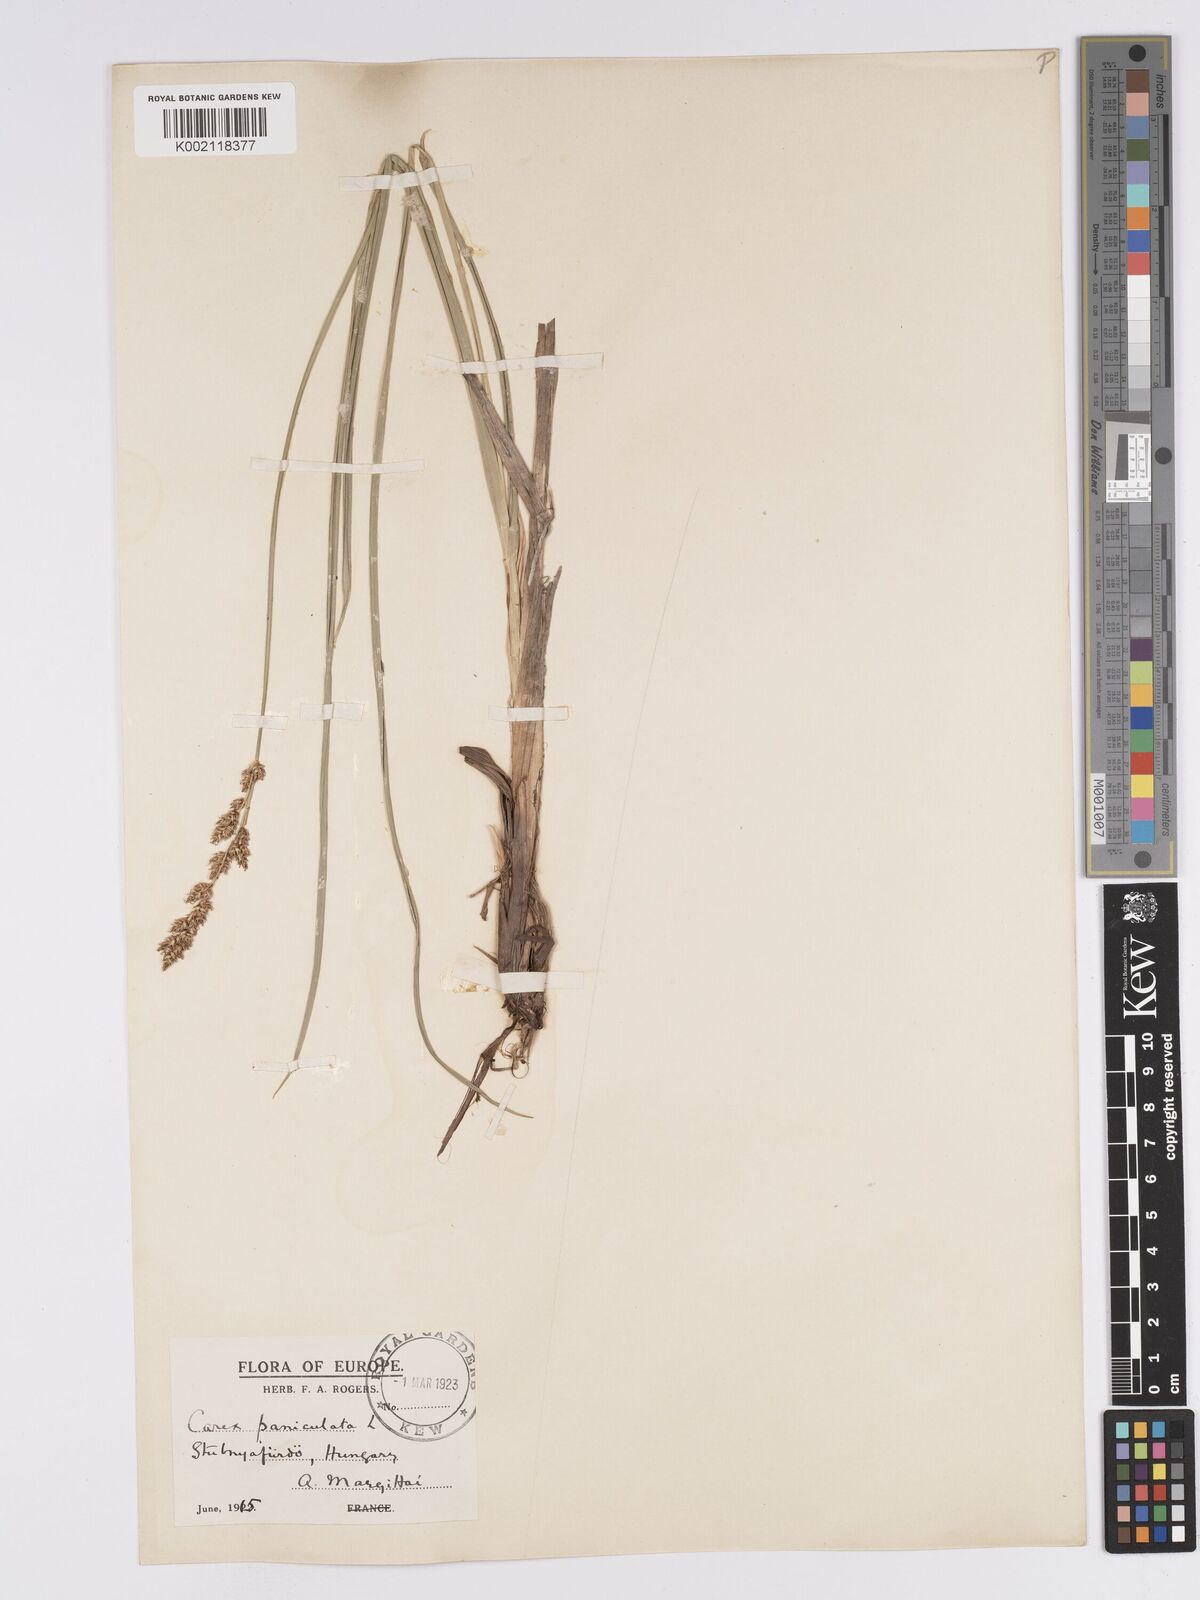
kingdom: Plantae
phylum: Tracheophyta
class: Liliopsida
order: Poales
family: Cyperaceae
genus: Carex
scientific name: Carex paniculata
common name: Greater tussock-sedge
